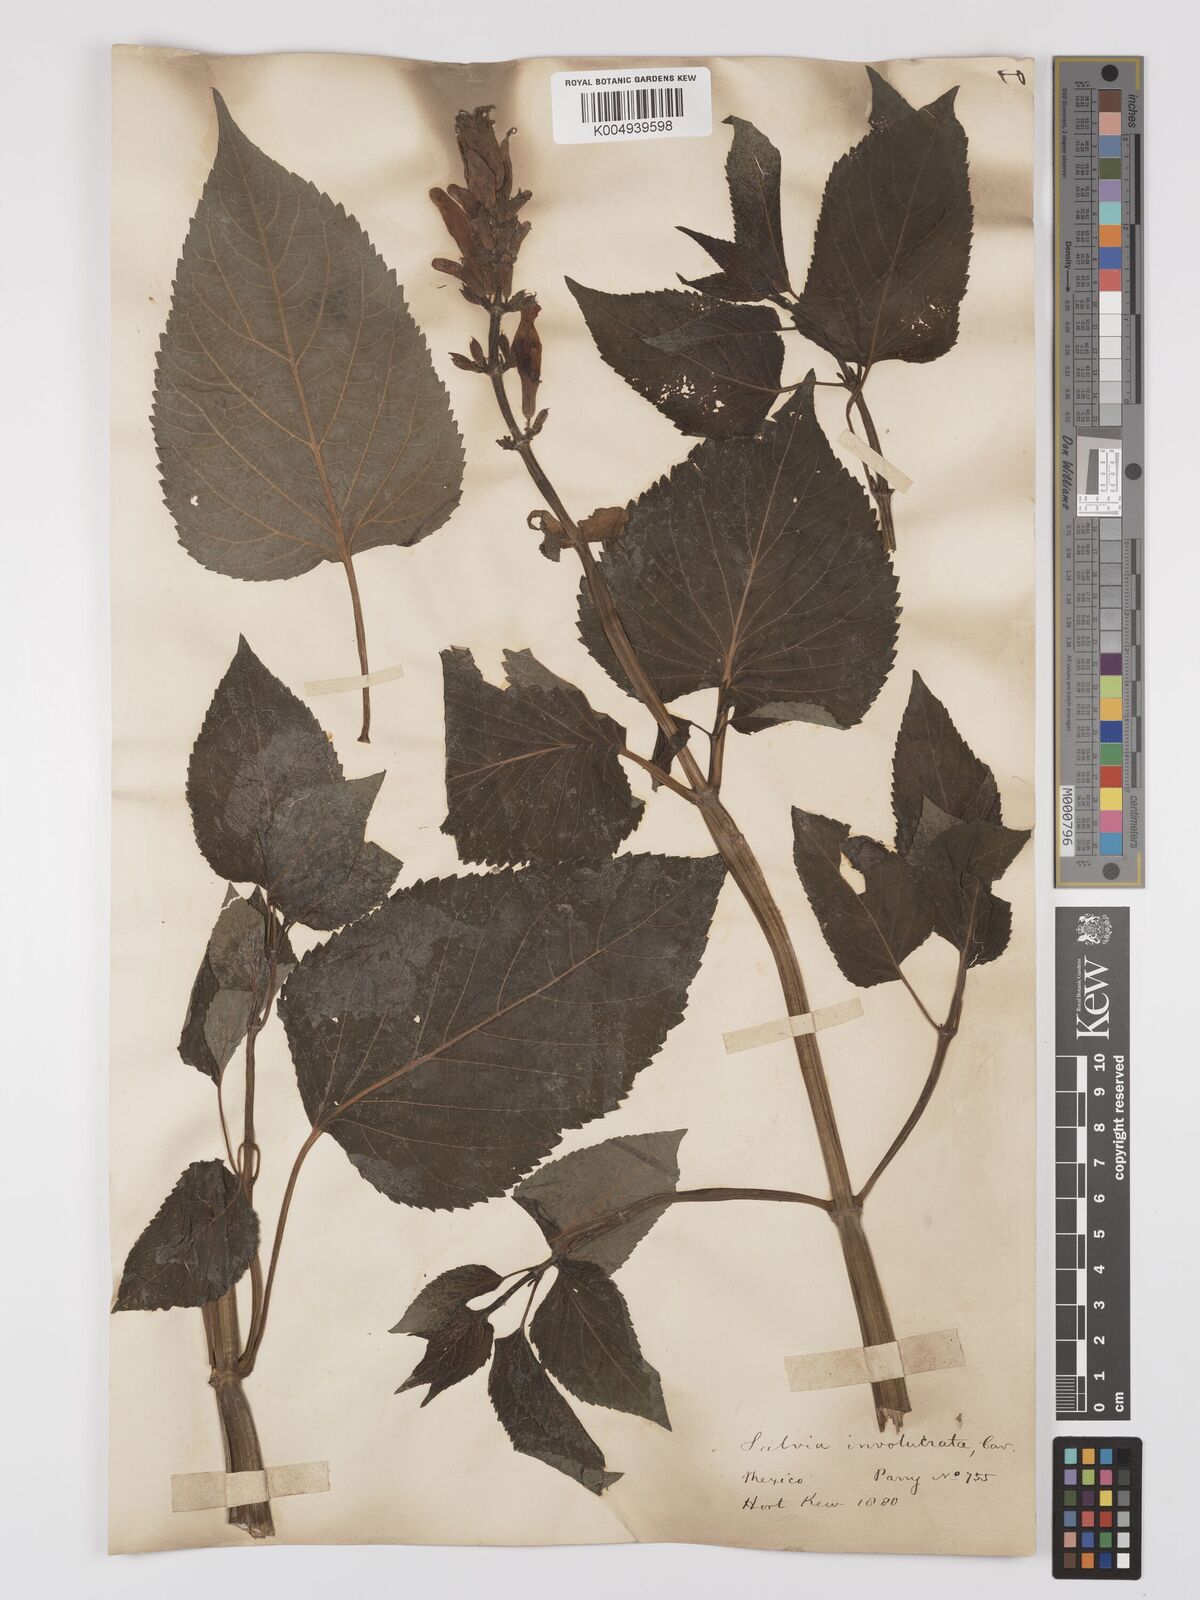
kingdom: Plantae
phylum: Tracheophyta
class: Magnoliopsida
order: Lamiales
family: Lamiaceae
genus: Salvia
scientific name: Salvia involucrata
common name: Roseleaf sage
